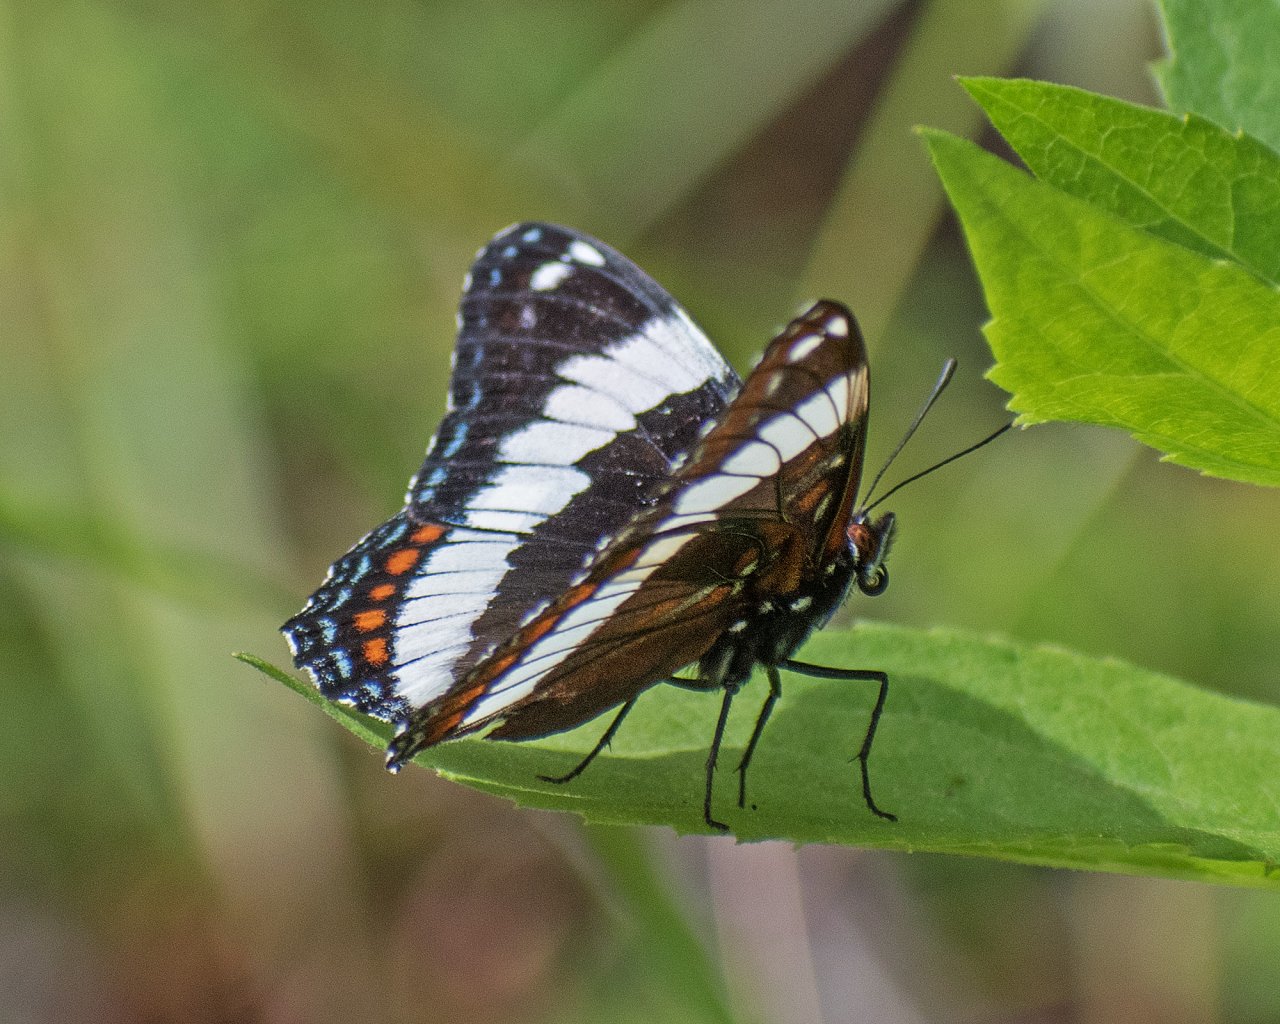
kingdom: Animalia
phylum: Arthropoda
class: Insecta
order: Lepidoptera
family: Nymphalidae
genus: Limenitis
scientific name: Limenitis arthemis
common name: Red-spotted Admiral
